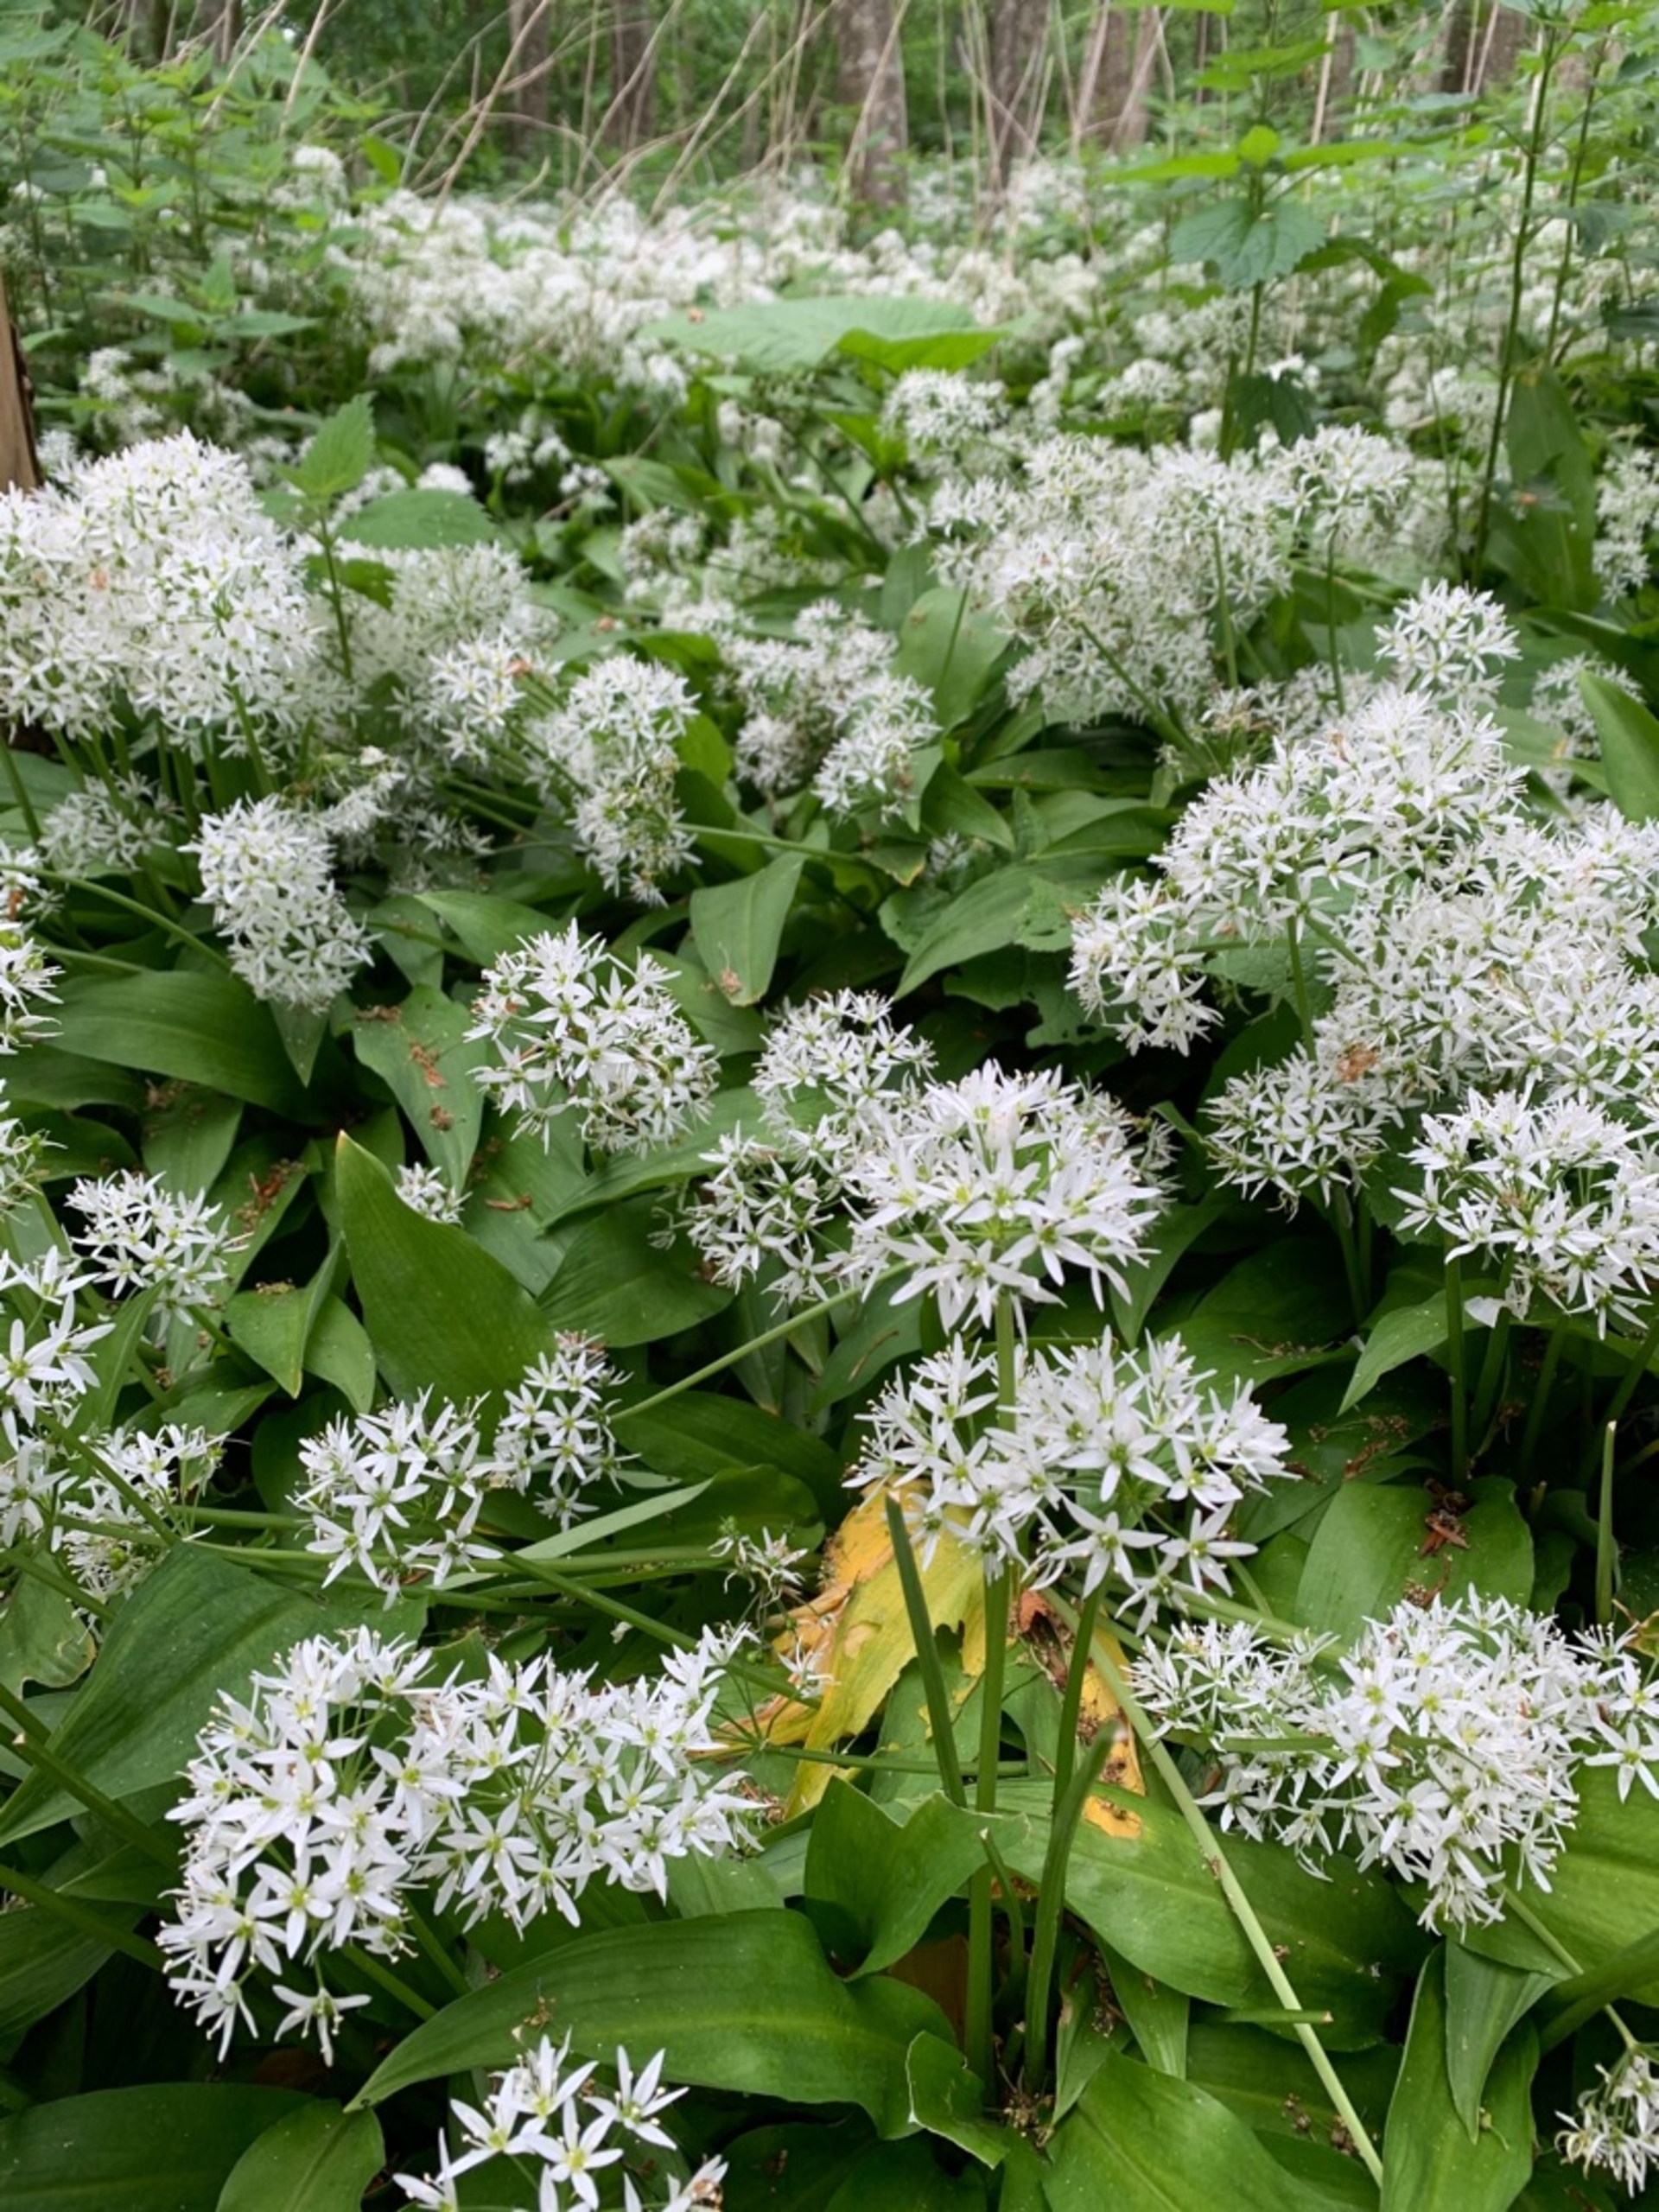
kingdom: Plantae
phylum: Tracheophyta
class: Liliopsida
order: Asparagales
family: Amaryllidaceae
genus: Allium
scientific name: Allium ursinum
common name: Rams-løg
